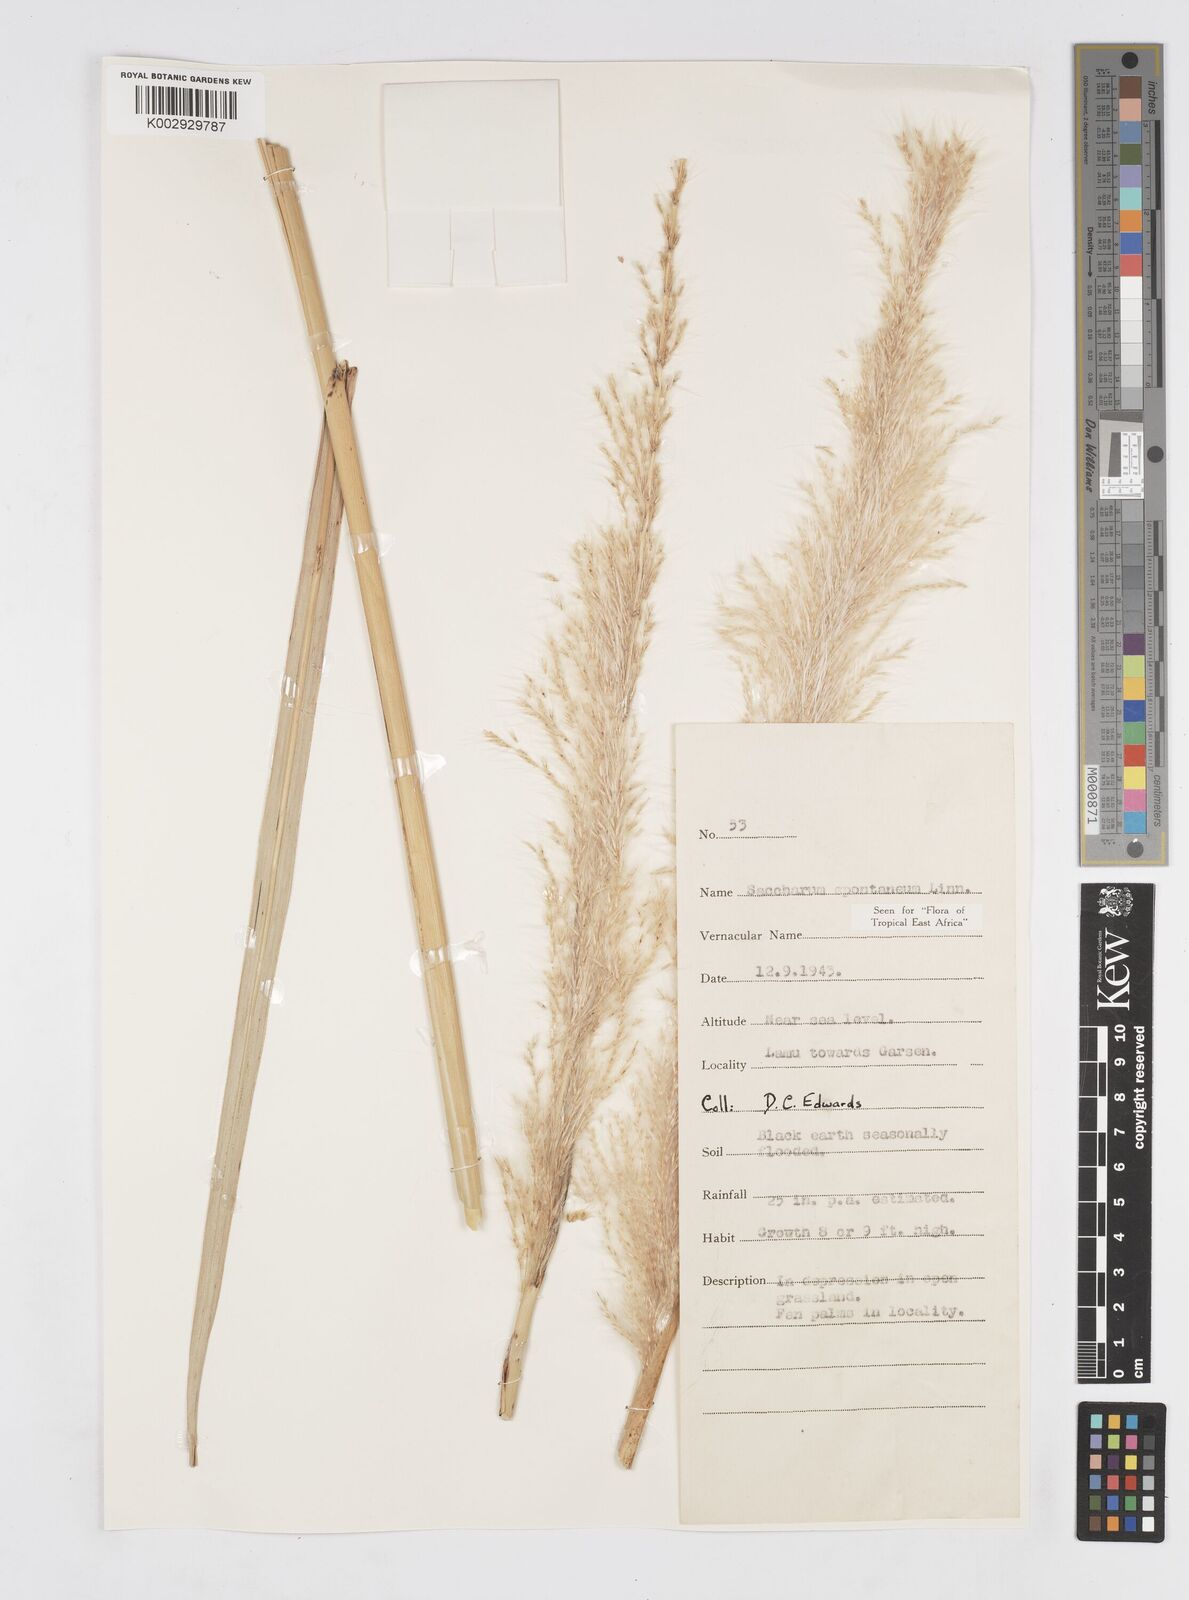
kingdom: Plantae
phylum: Tracheophyta
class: Liliopsida
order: Poales
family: Poaceae
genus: Saccharum
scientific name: Saccharum spontaneum
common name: Wild sugarcane
